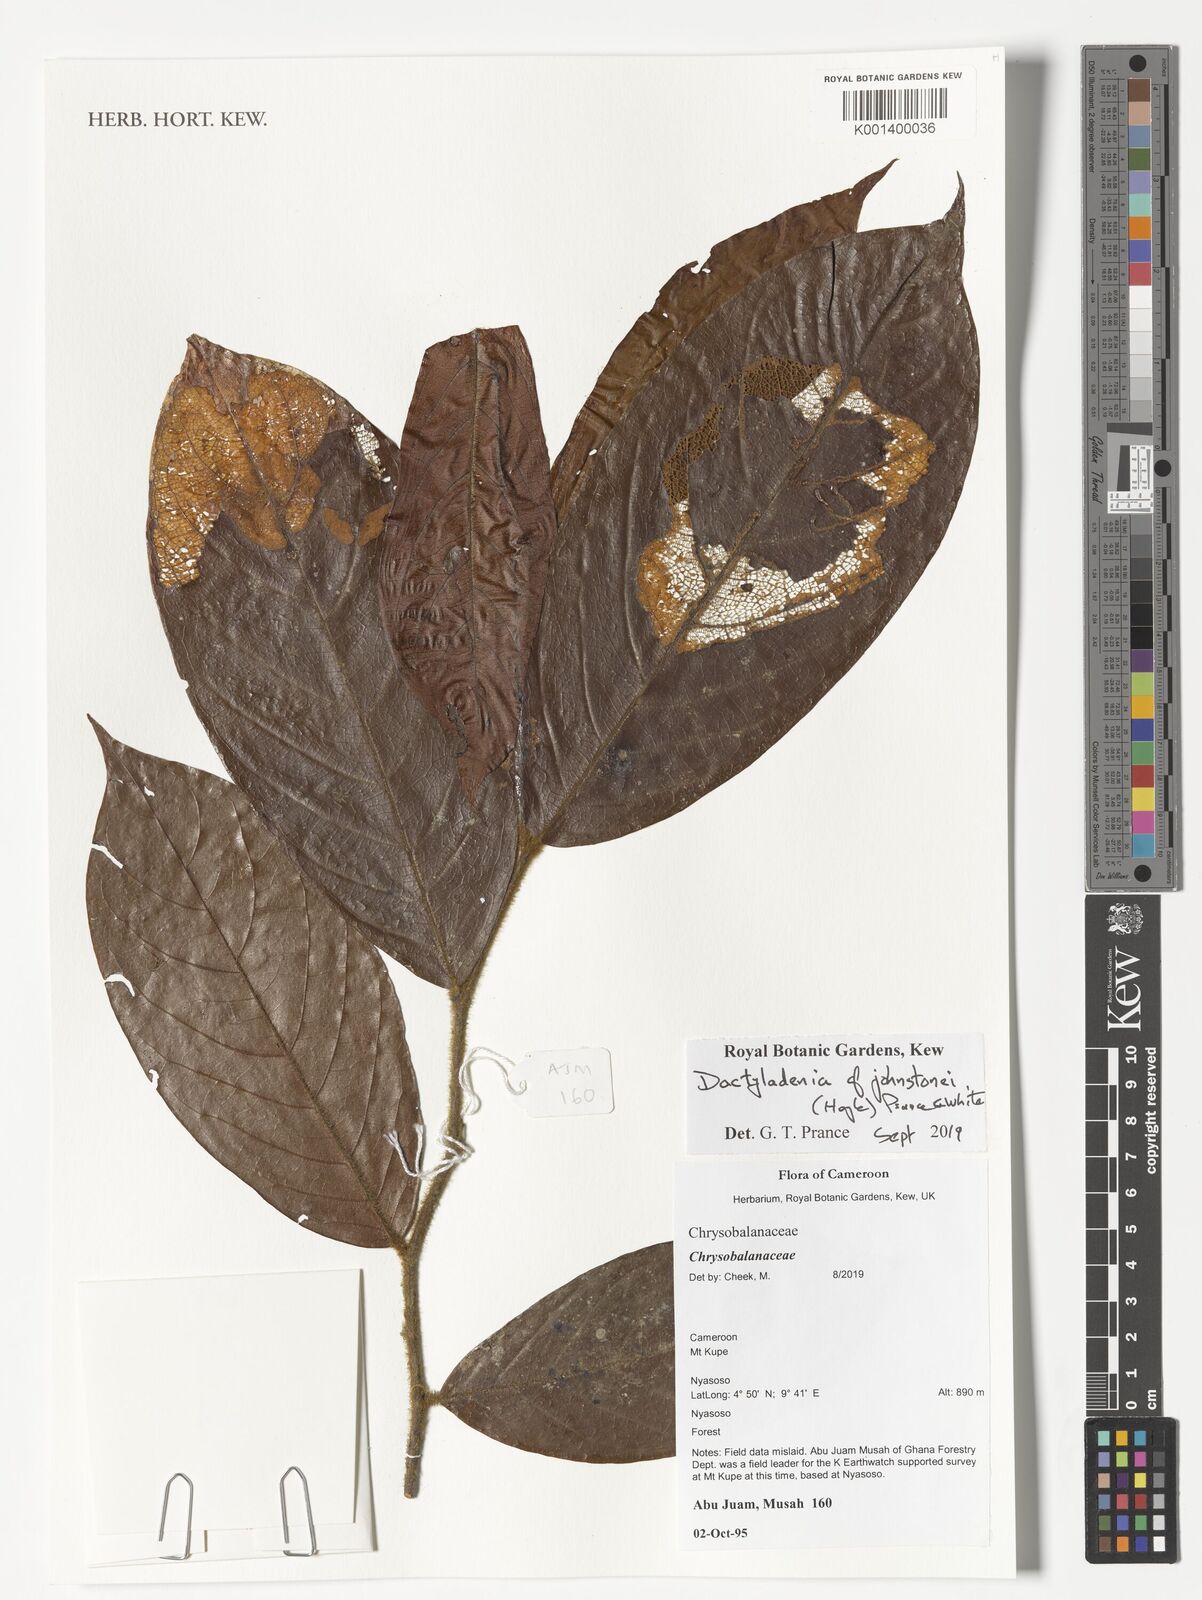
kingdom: Plantae
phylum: Tracheophyta
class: Magnoliopsida
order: Malpighiales
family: Chrysobalanaceae
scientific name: Chrysobalanaceae
